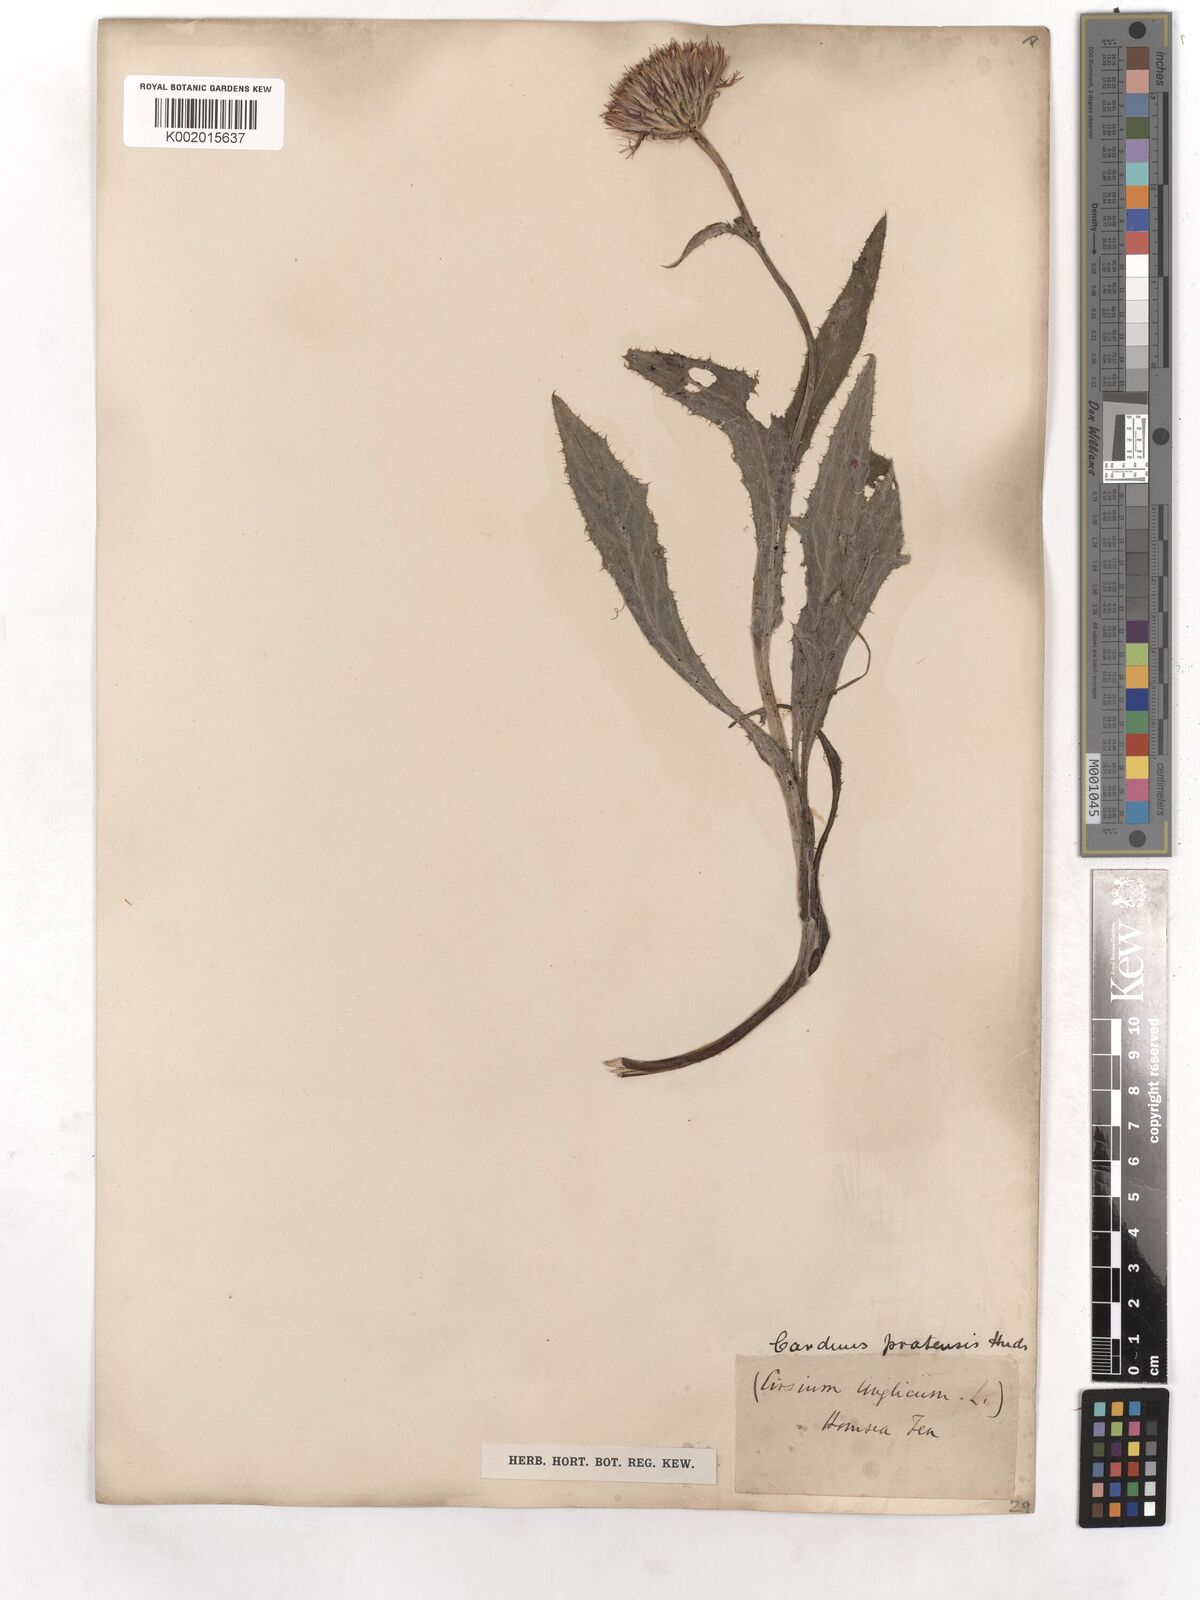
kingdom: Plantae
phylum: Tracheophyta
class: Magnoliopsida
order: Asterales
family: Asteraceae
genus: Cirsium
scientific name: Cirsium dissectum
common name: Meadow thistle
